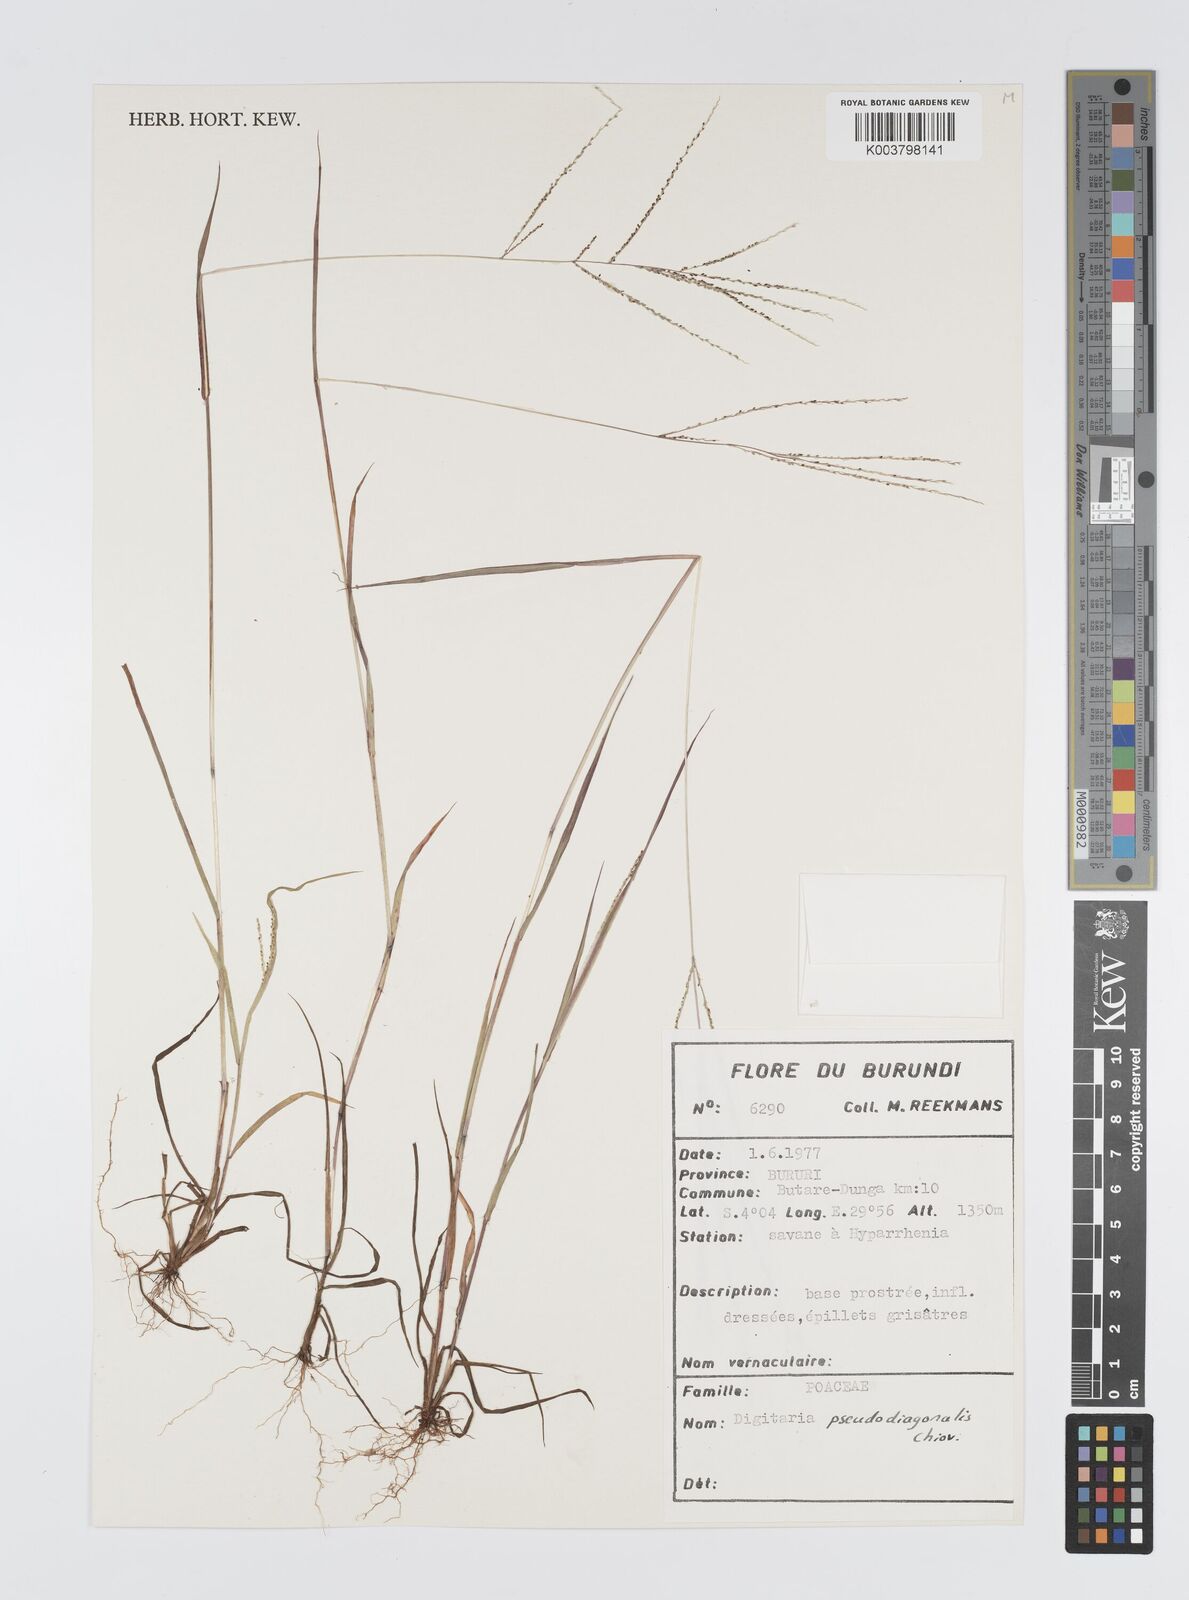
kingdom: Plantae
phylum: Tracheophyta
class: Liliopsida
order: Poales
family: Poaceae
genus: Digitaria
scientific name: Digitaria pseudodiagonalis
